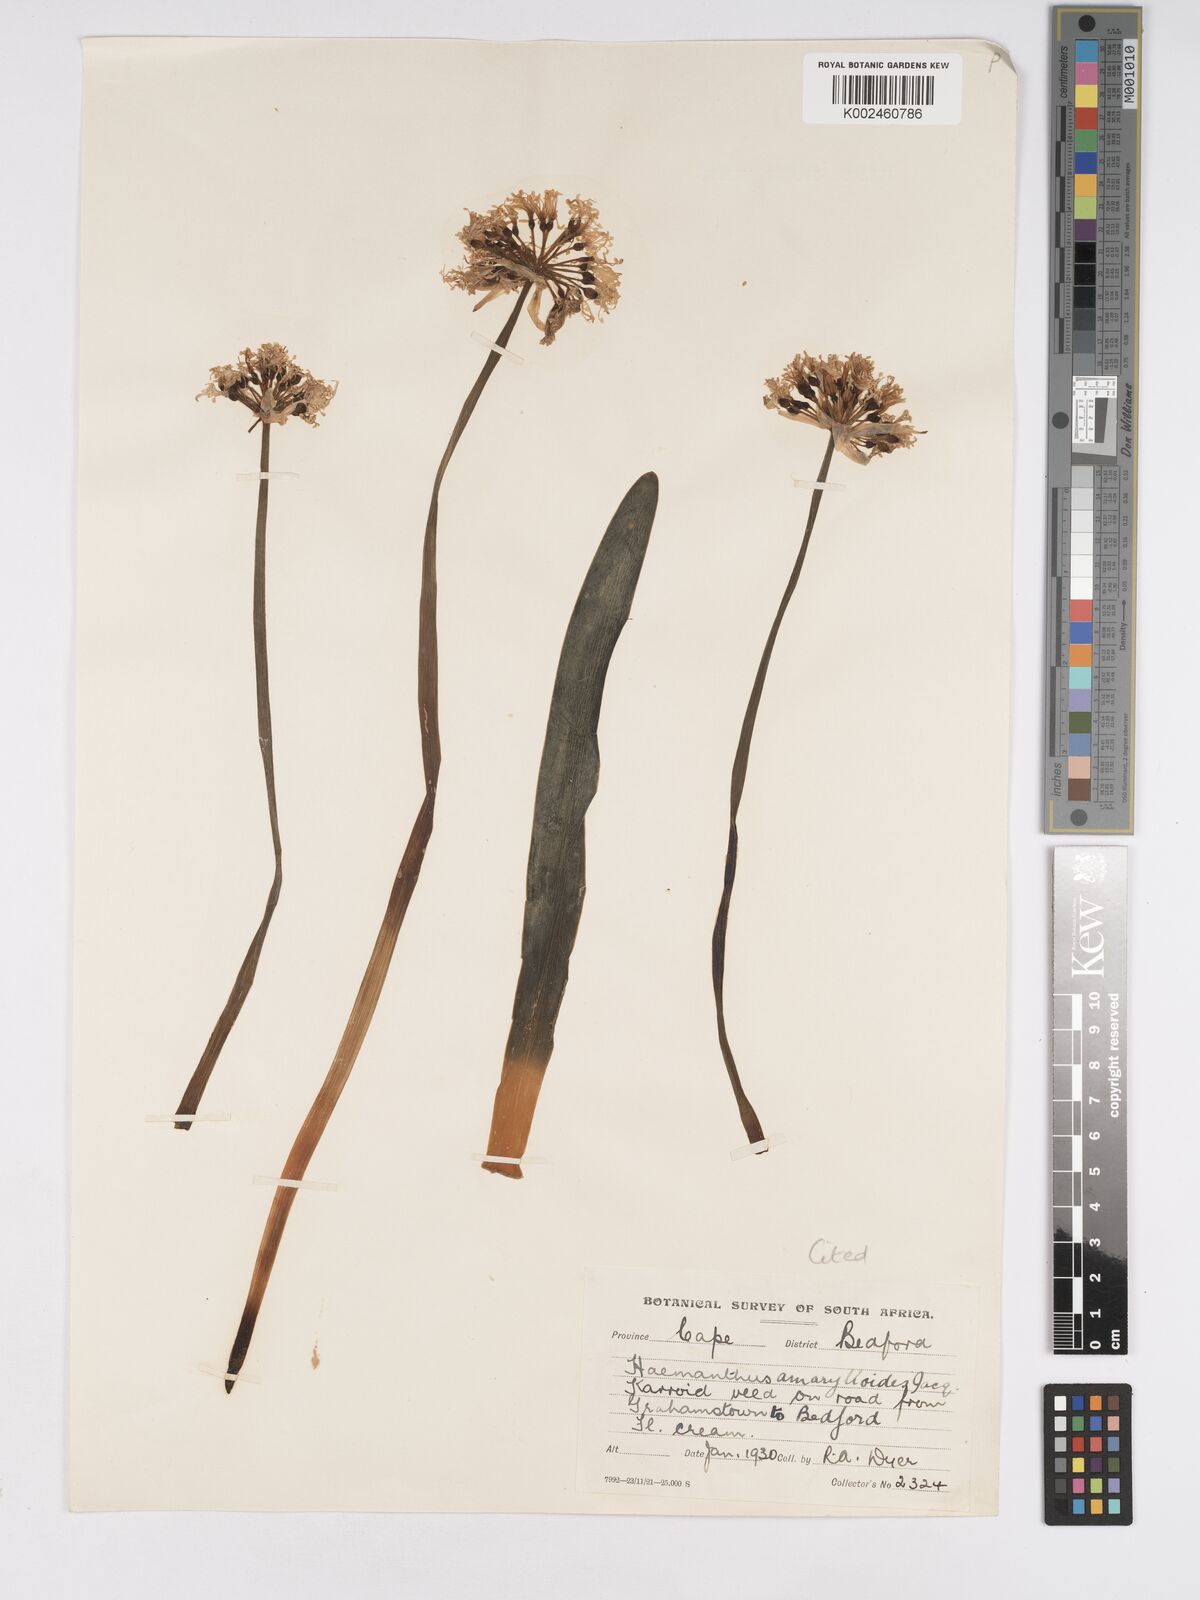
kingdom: Plantae
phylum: Tracheophyta
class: Liliopsida
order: Asparagales
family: Amaryllidaceae
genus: Haemanthus
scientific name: Haemanthus montanus
